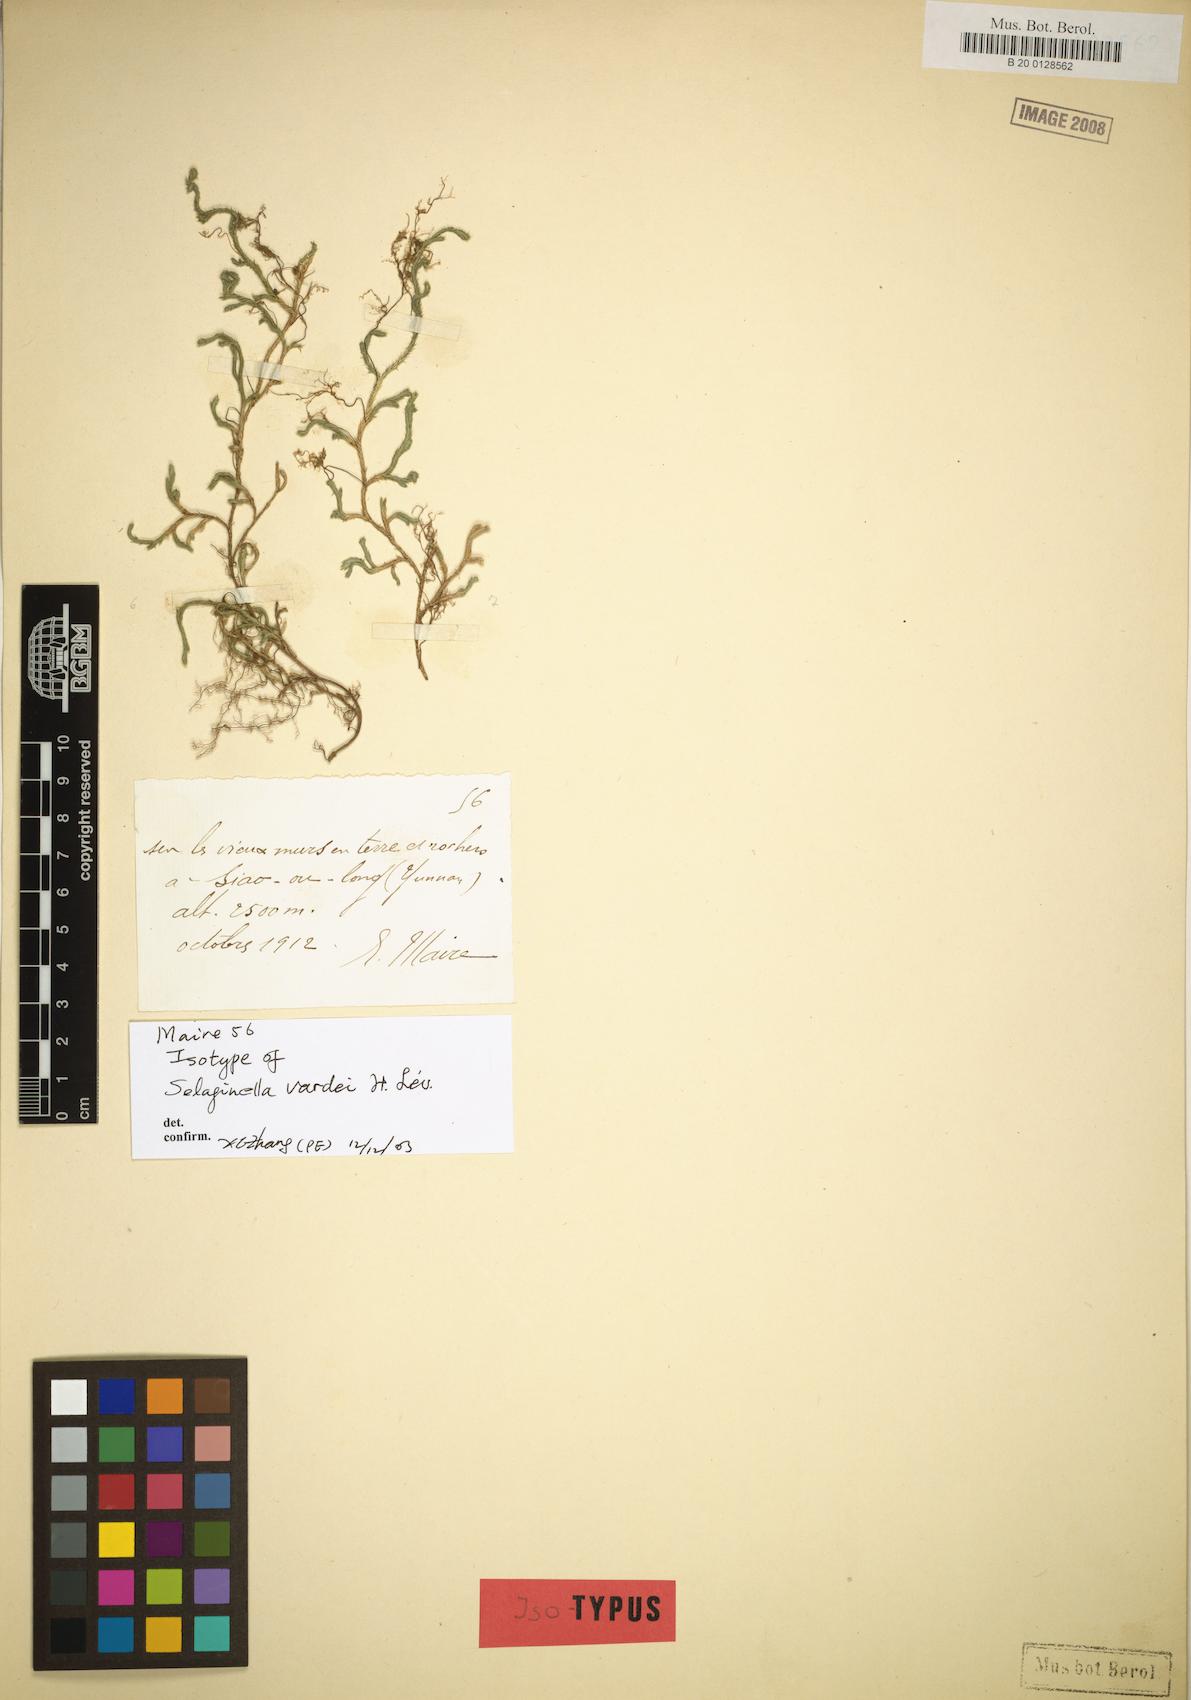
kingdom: Plantae
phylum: Tracheophyta
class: Lycopodiopsida
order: Selaginellales
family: Selaginellaceae
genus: Selaginella
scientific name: Selaginella vardei
